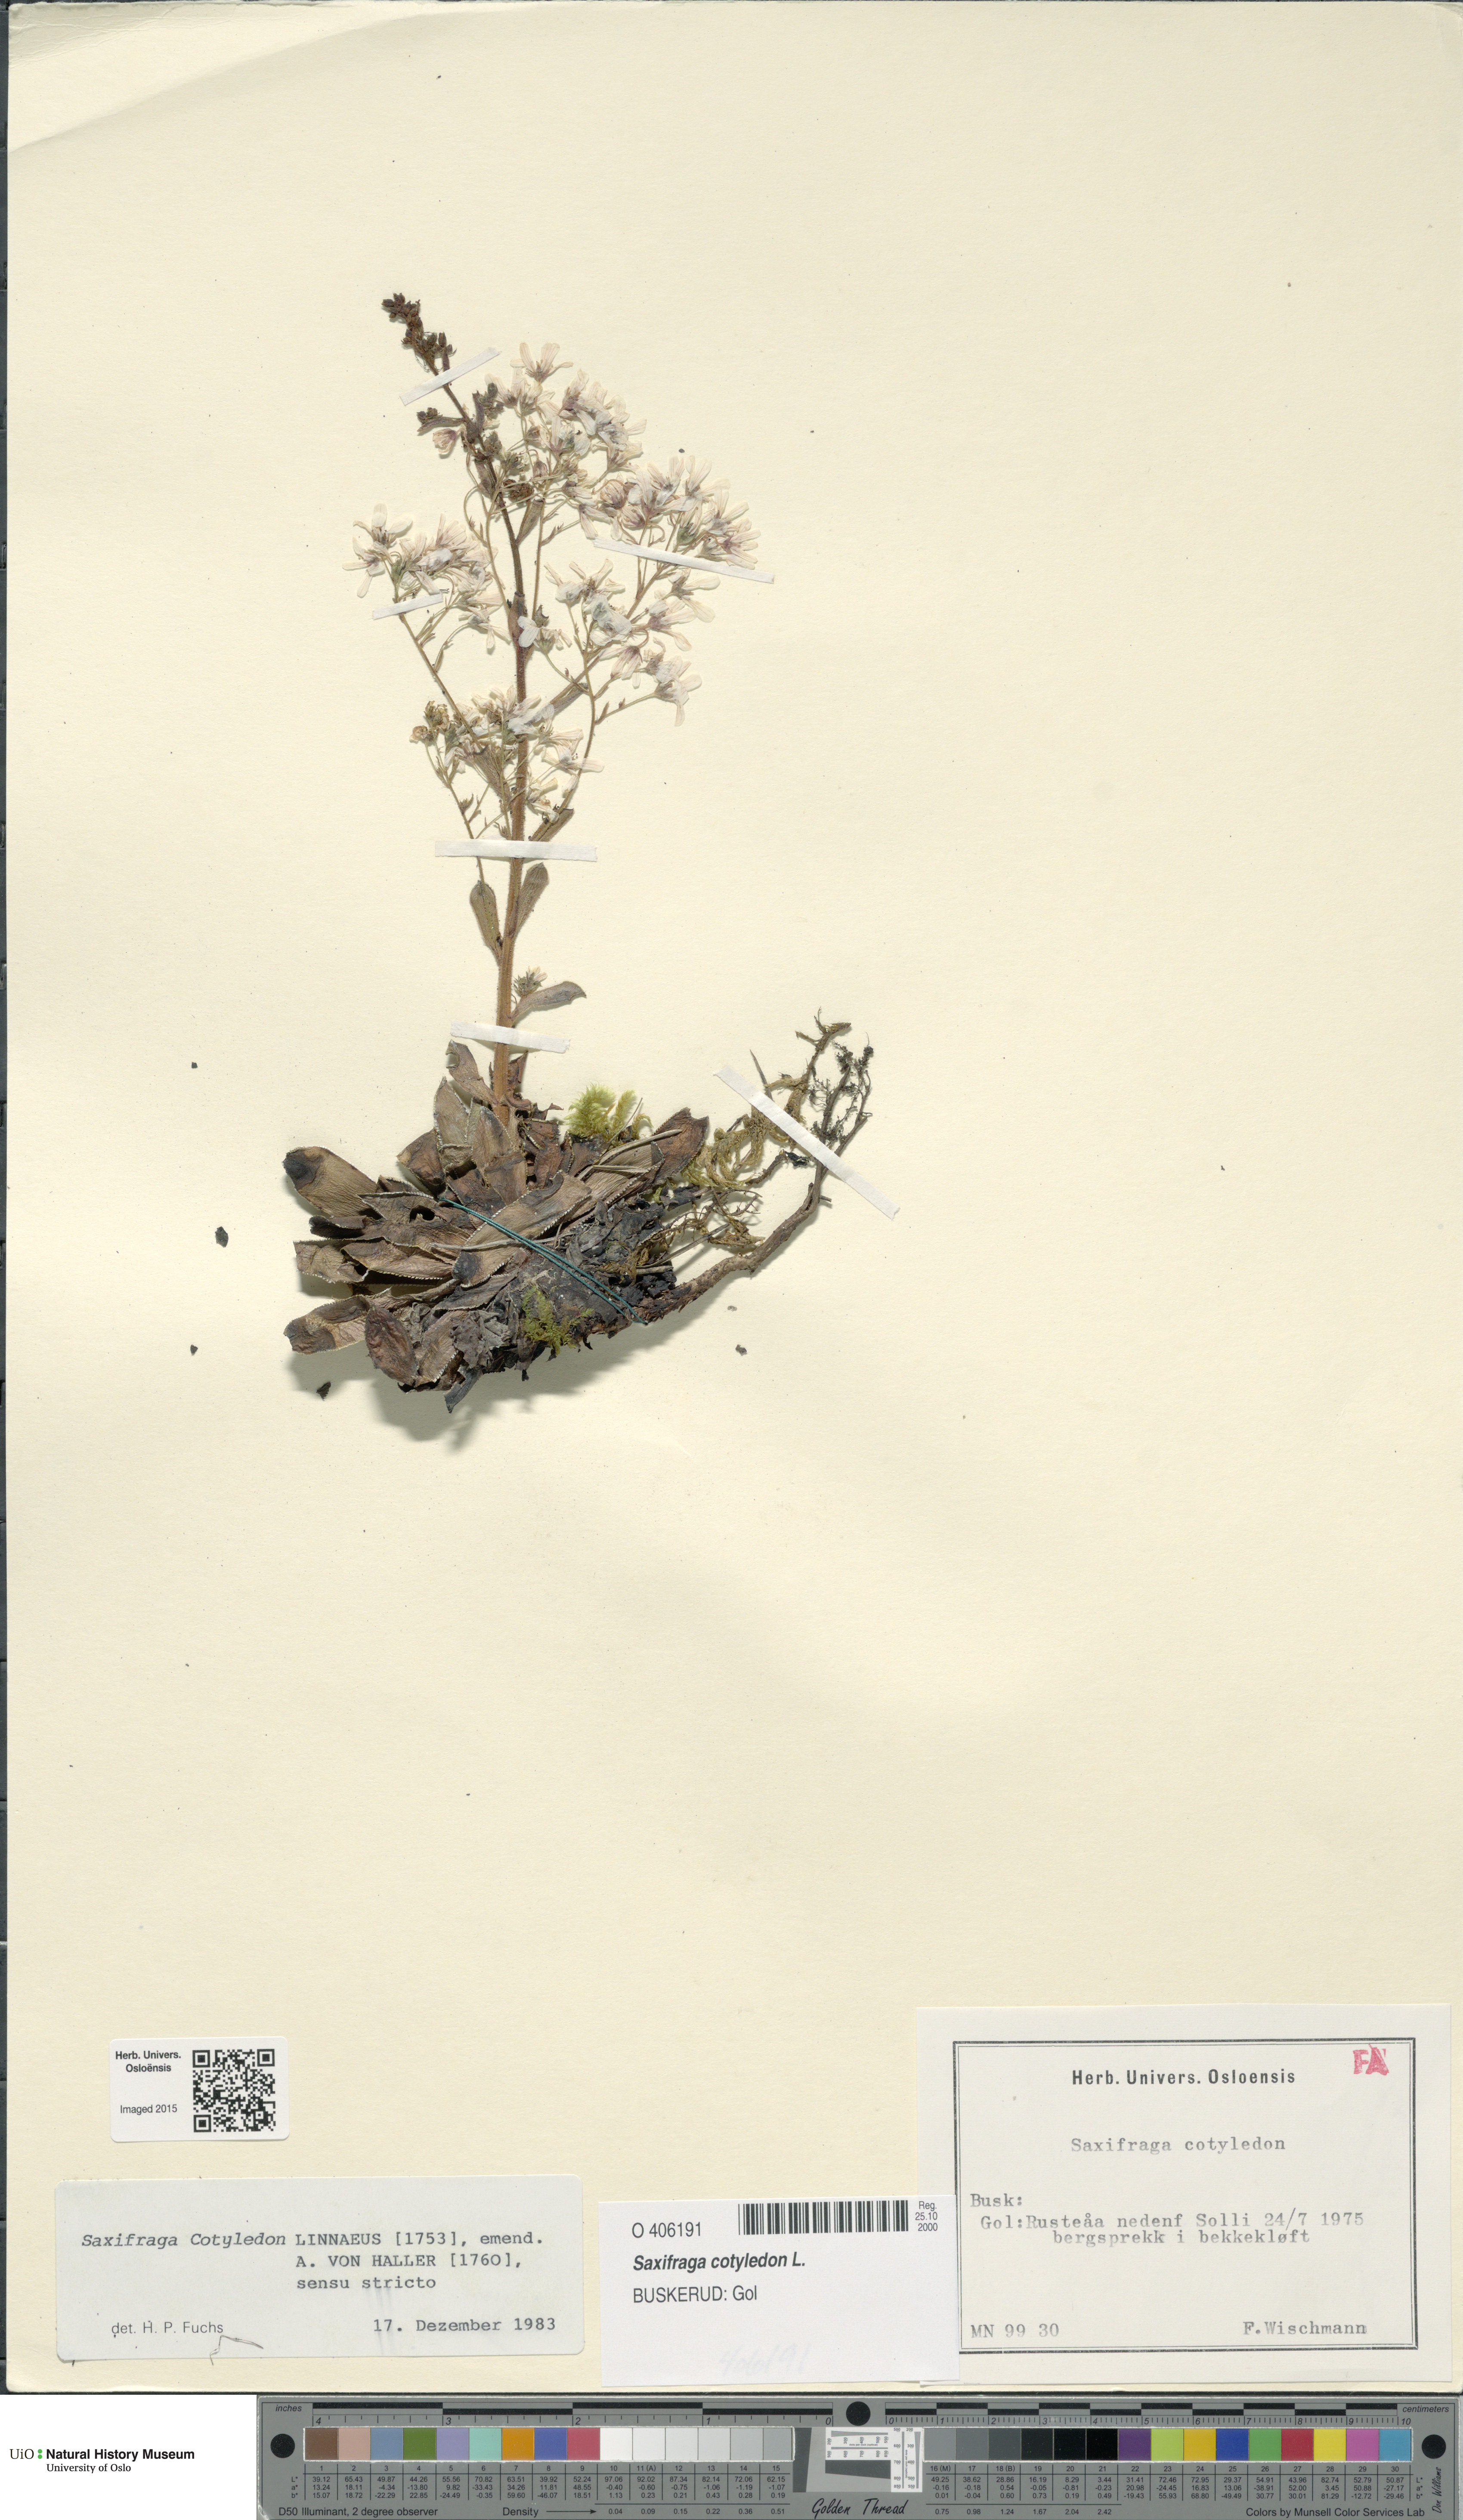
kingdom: Plantae
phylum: Tracheophyta
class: Magnoliopsida
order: Saxifragales
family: Saxifragaceae
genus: Saxifraga
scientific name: Saxifraga cotyledon
